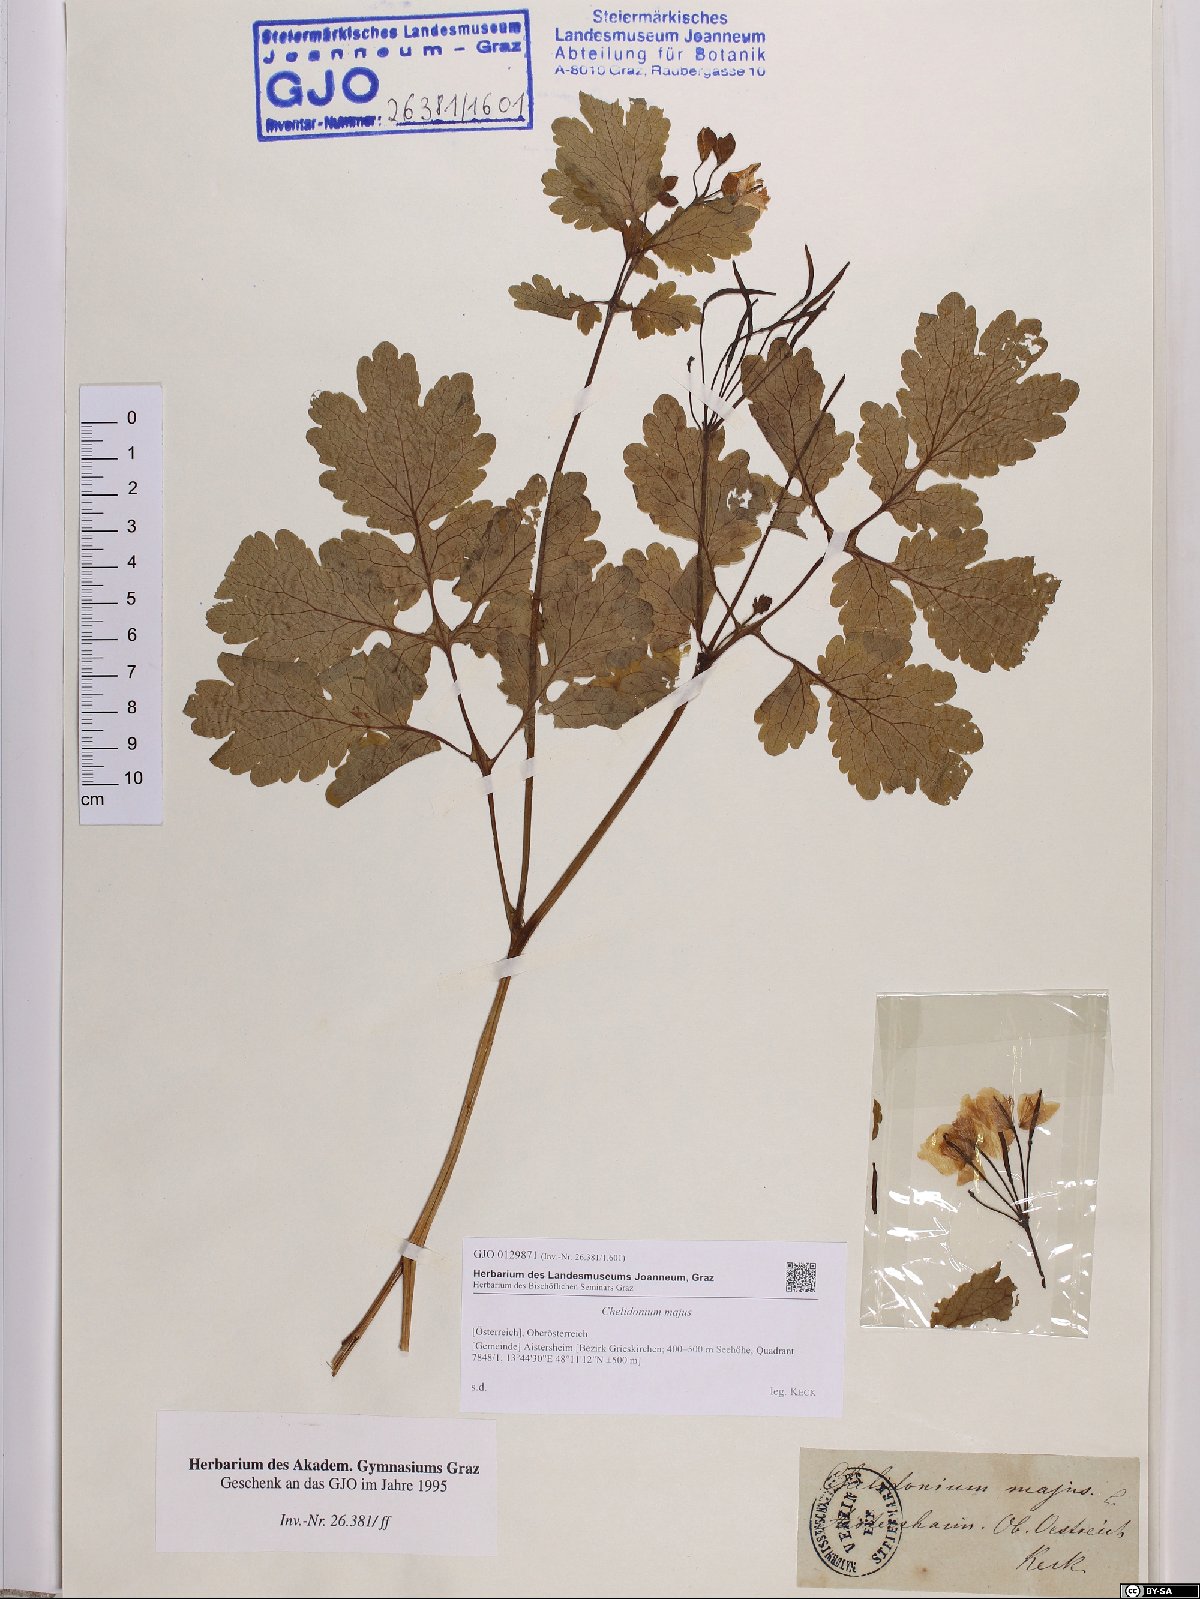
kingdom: Plantae
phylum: Tracheophyta
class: Magnoliopsida
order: Ranunculales
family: Papaveraceae
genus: Chelidonium
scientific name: Chelidonium majus
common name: Greater celandine
